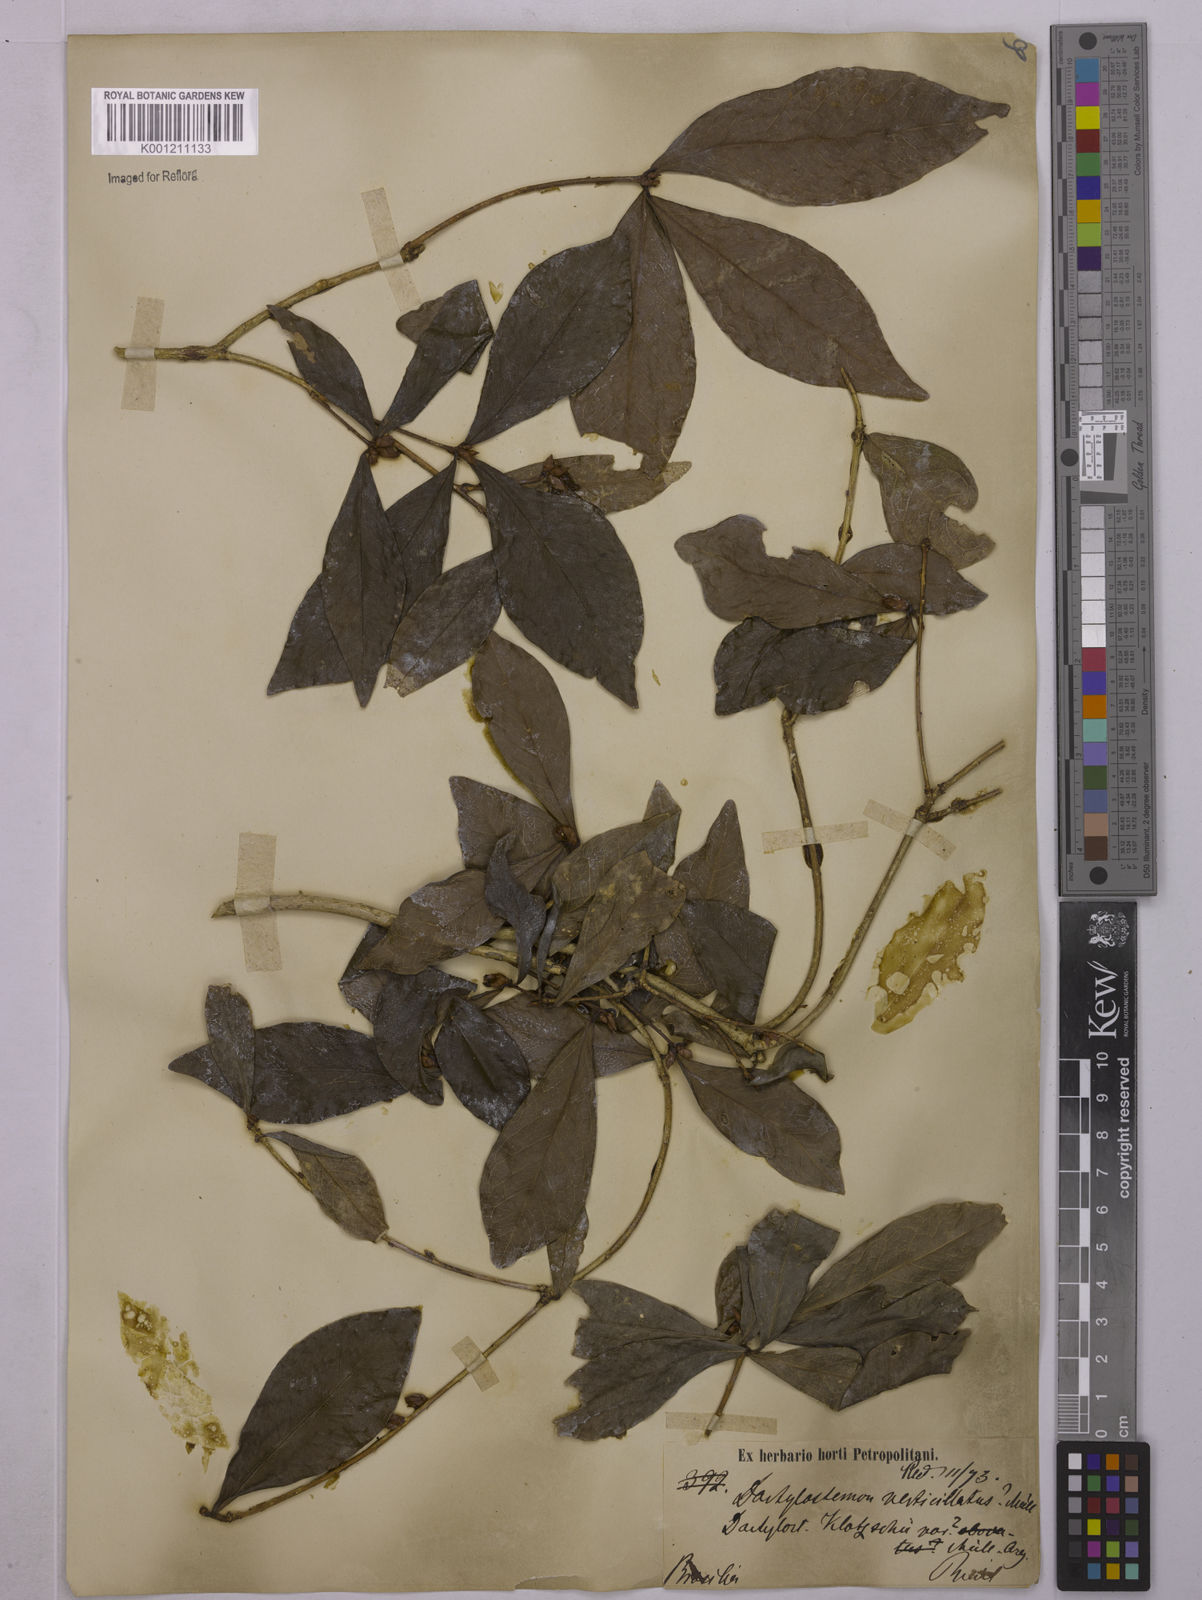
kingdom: Plantae
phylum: Tracheophyta
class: Magnoliopsida
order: Malpighiales
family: Euphorbiaceae
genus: Actinostemon
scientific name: Actinostemon verticillatus
